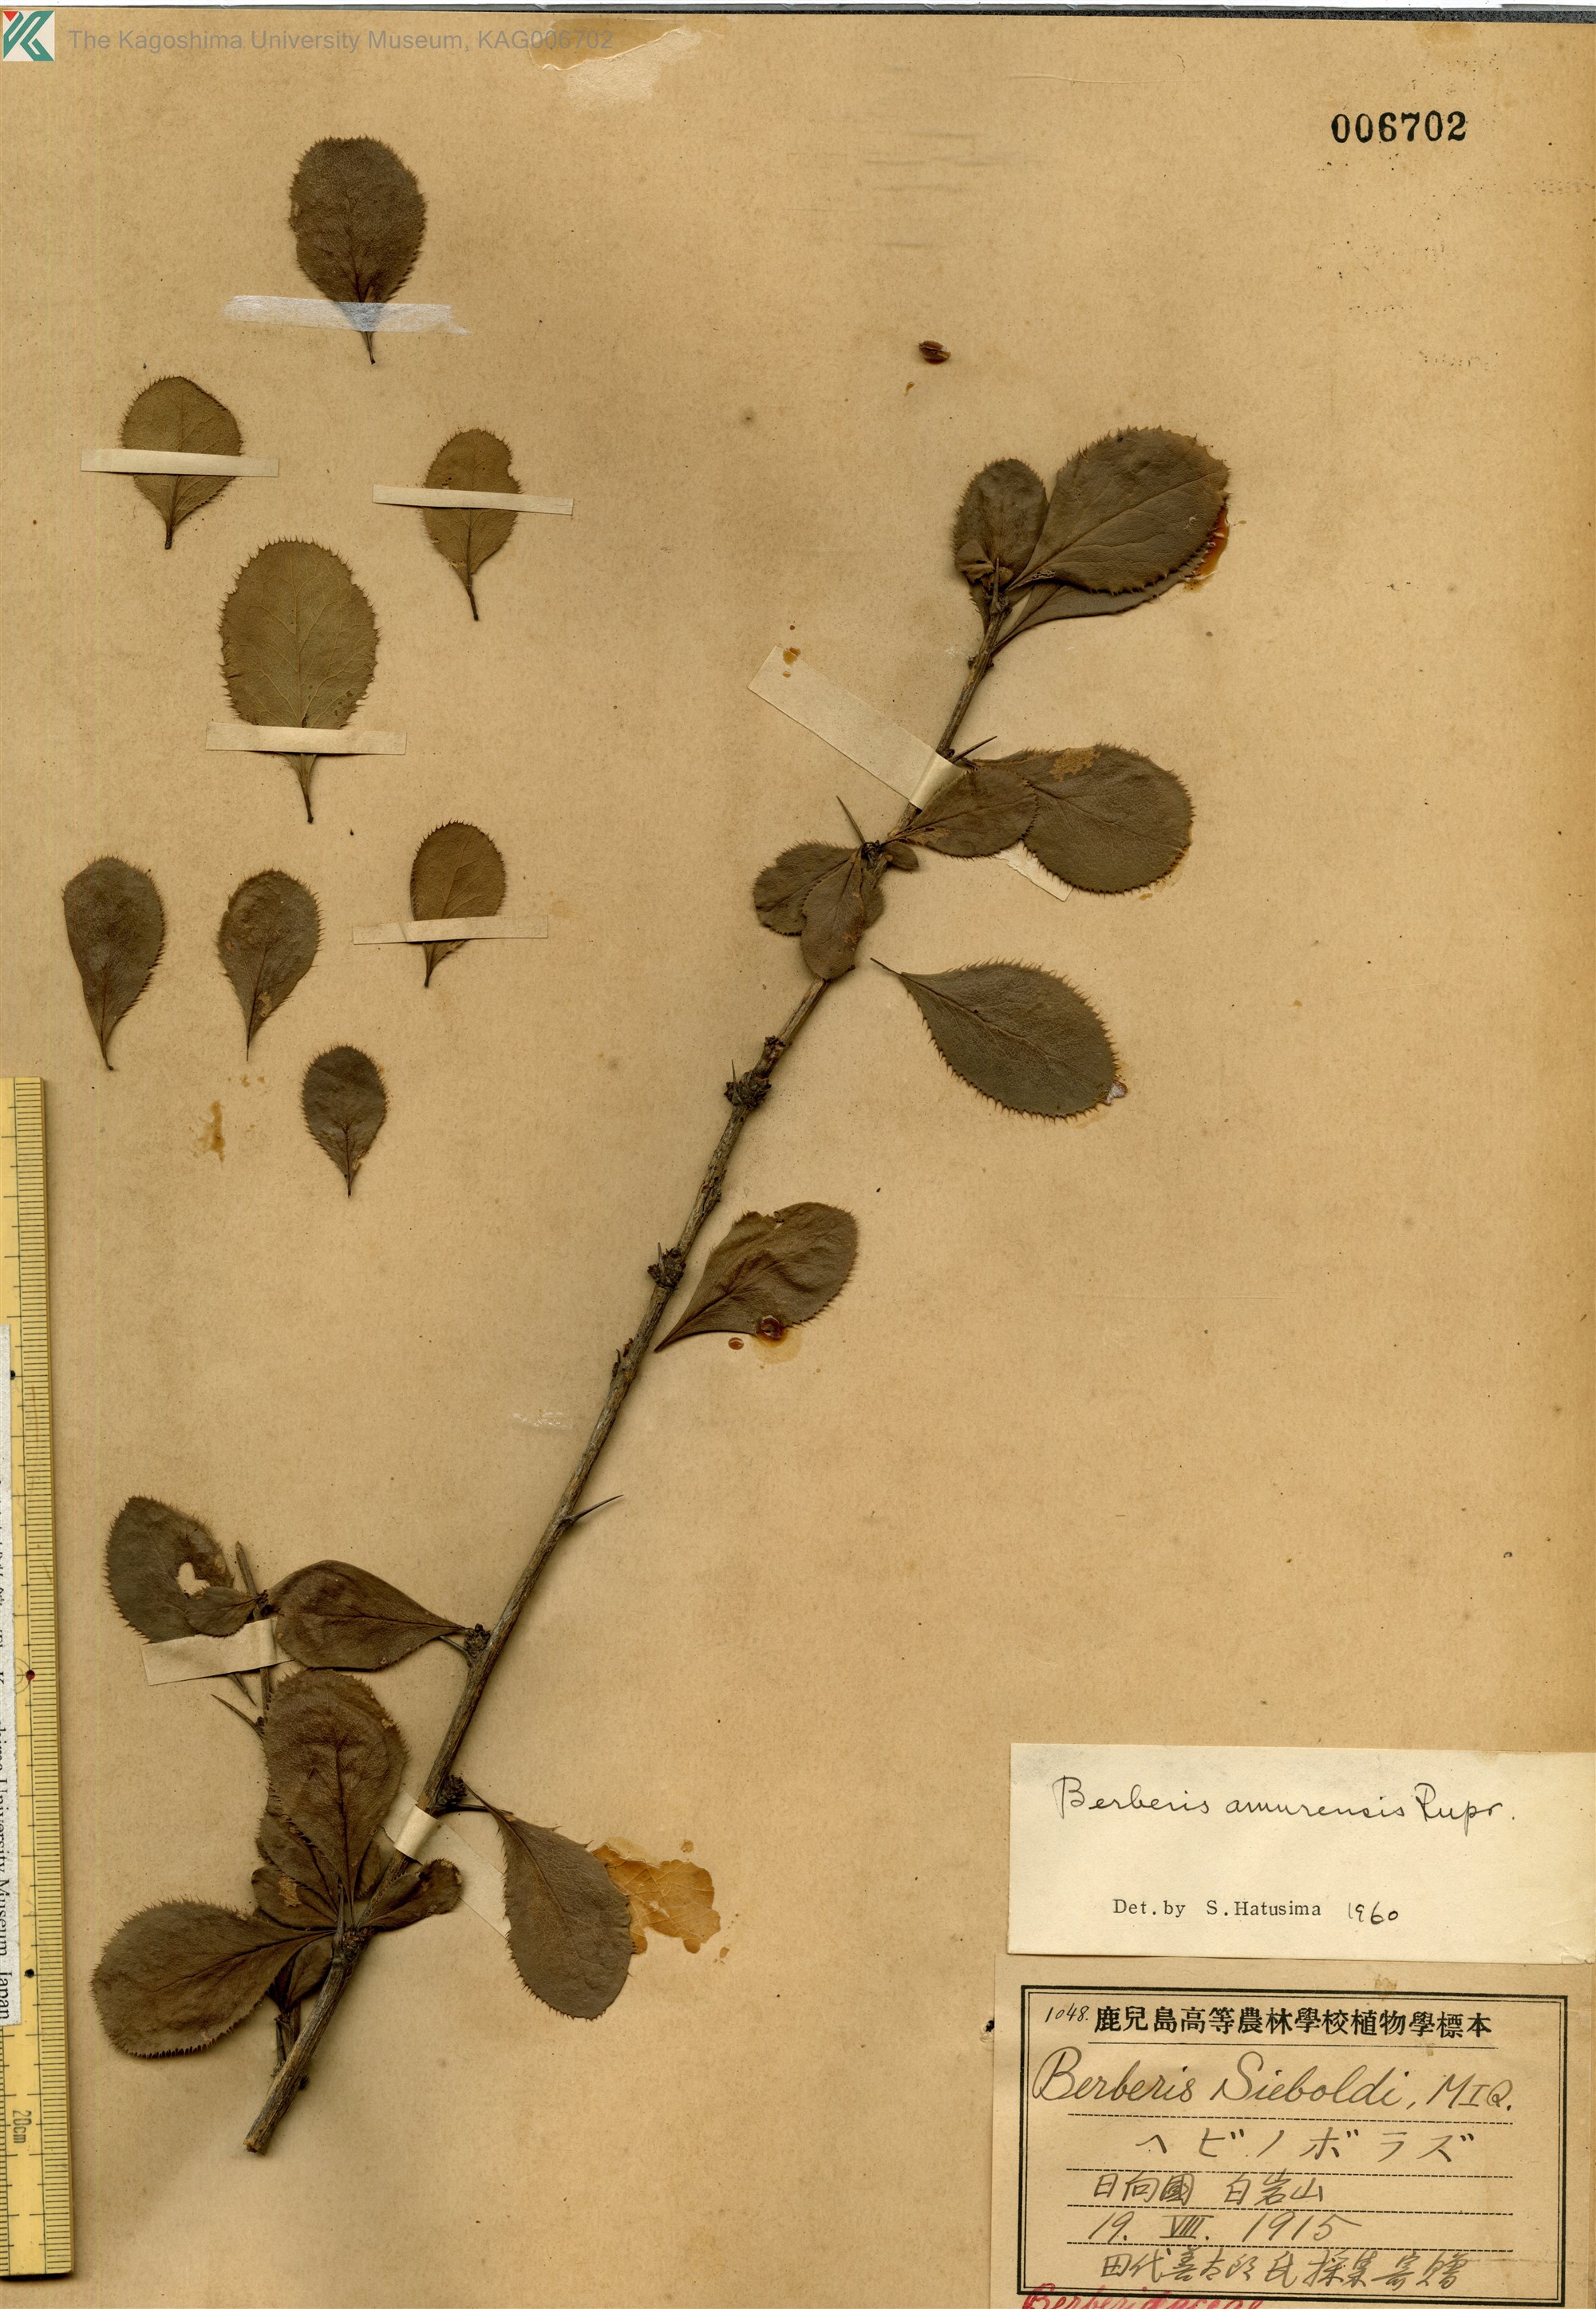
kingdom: Plantae
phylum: Tracheophyta
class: Magnoliopsida
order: Ranunculales
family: Berberidaceae
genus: Berberis
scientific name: Berberis amurensis
